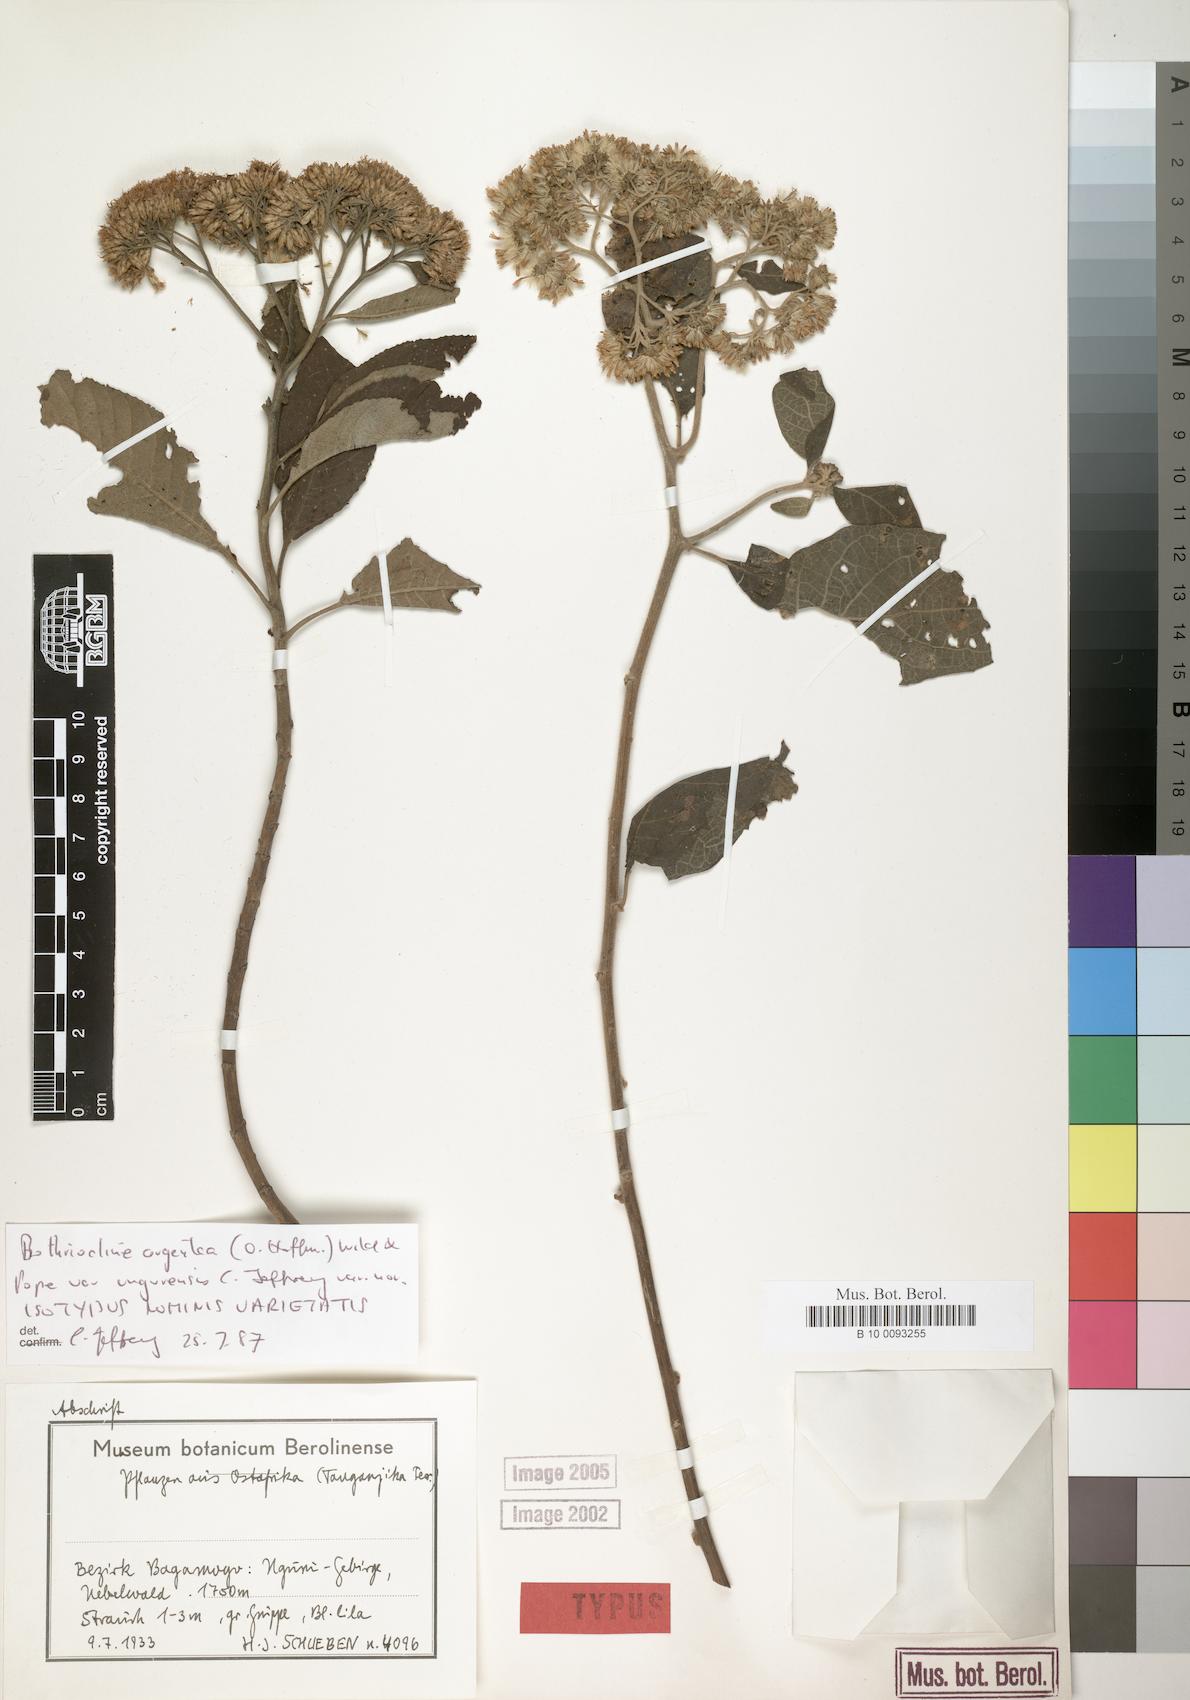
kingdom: Plantae
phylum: Tracheophyta
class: Magnoliopsida
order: Asterales
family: Asteraceae
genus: Bothriocline
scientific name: Bothriocline argentea
